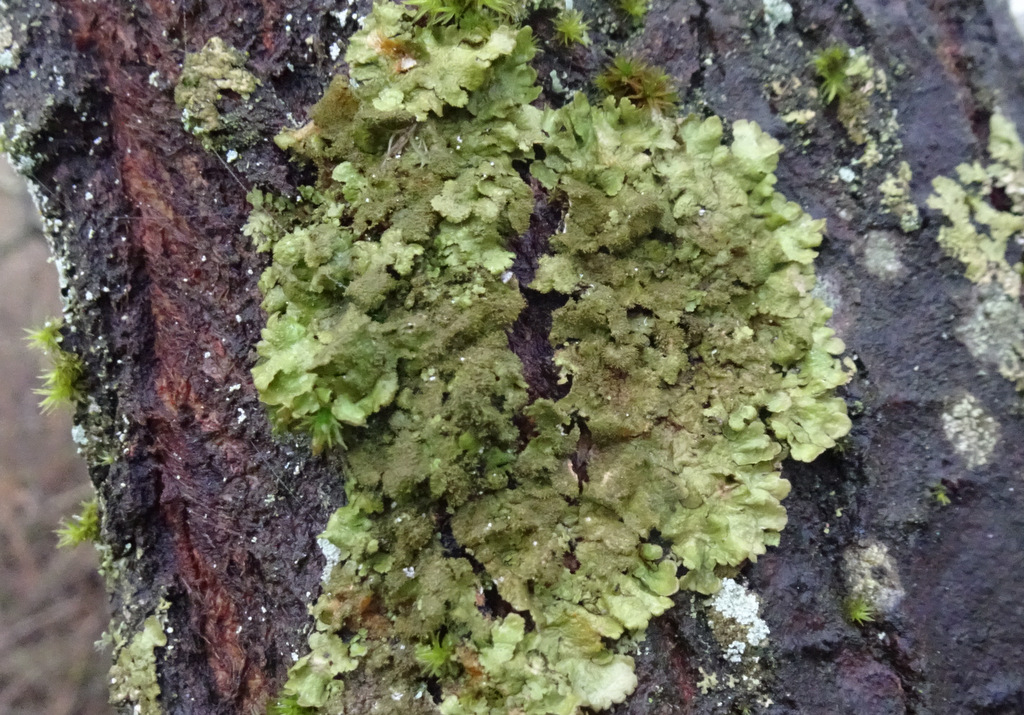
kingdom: Fungi
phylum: Ascomycota
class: Lecanoromycetes
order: Lecanorales
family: Parmeliaceae
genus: Melanelixia
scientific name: Melanelixia glabratula
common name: glinsende skållav
